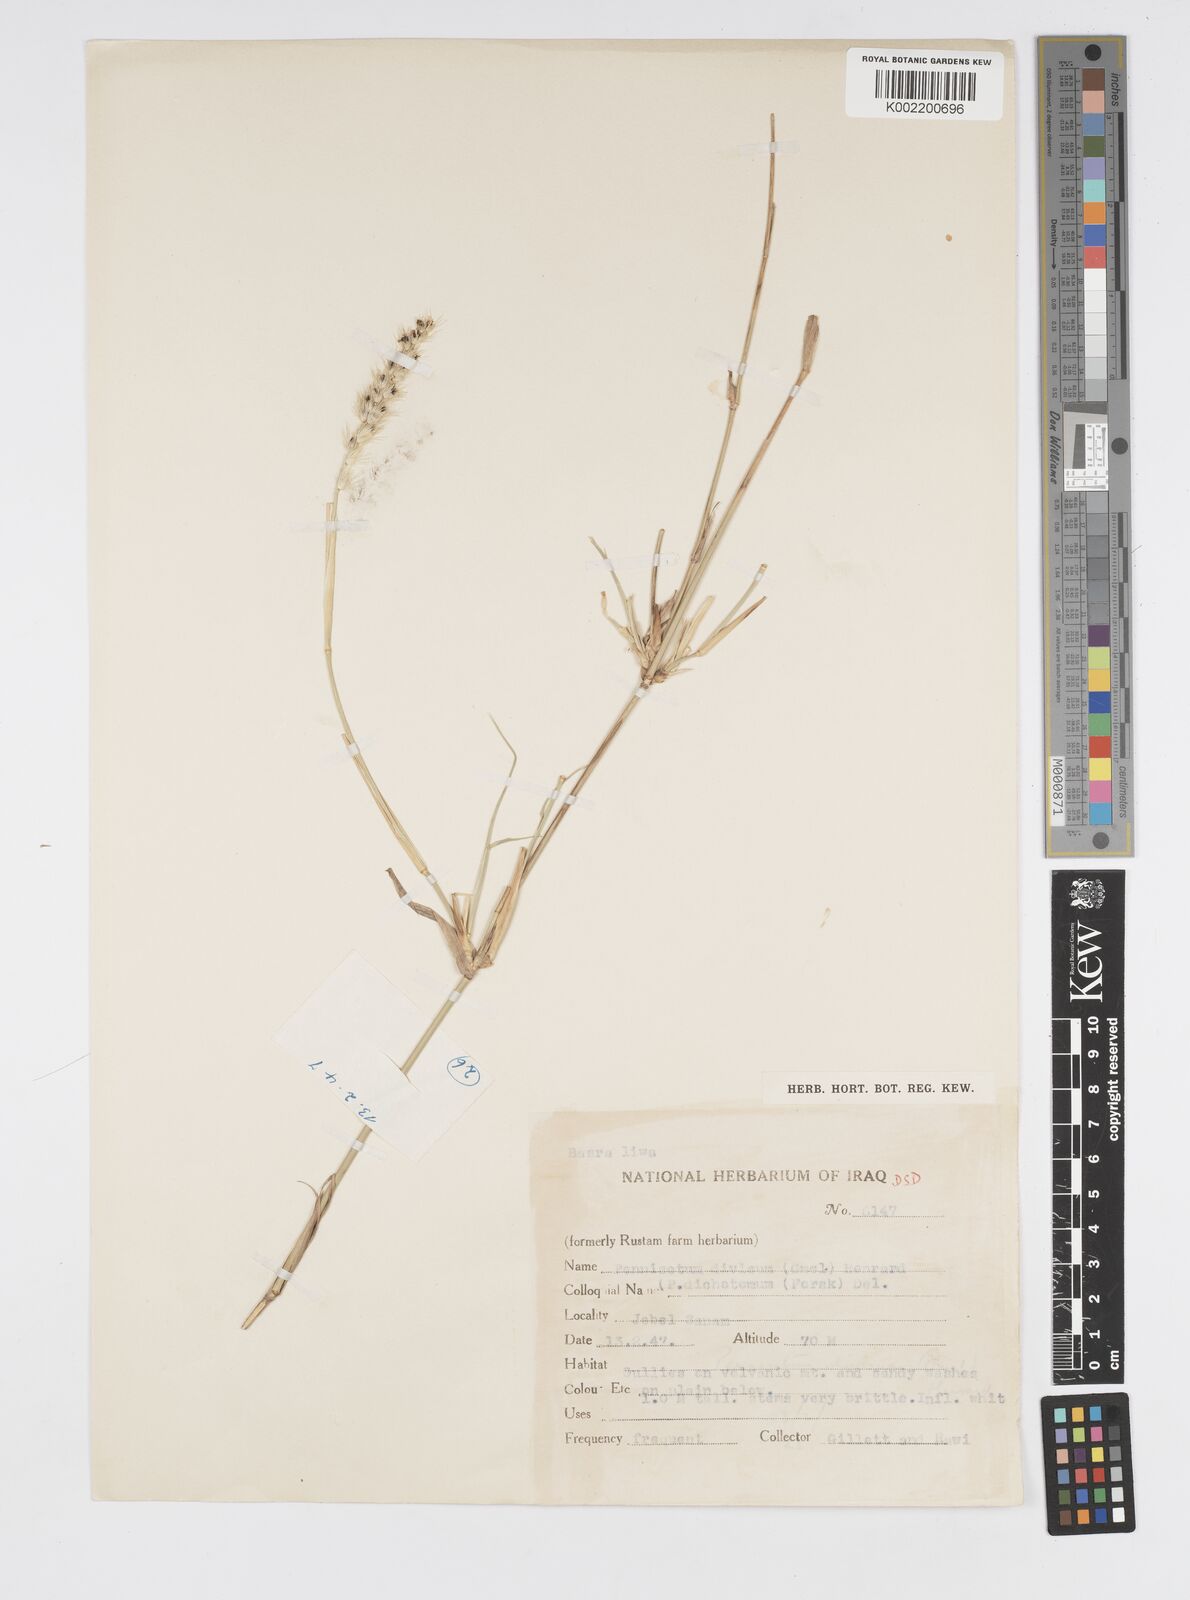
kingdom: Plantae
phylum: Tracheophyta
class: Liliopsida
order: Poales
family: Poaceae
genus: Cenchrus
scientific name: Cenchrus divisus
